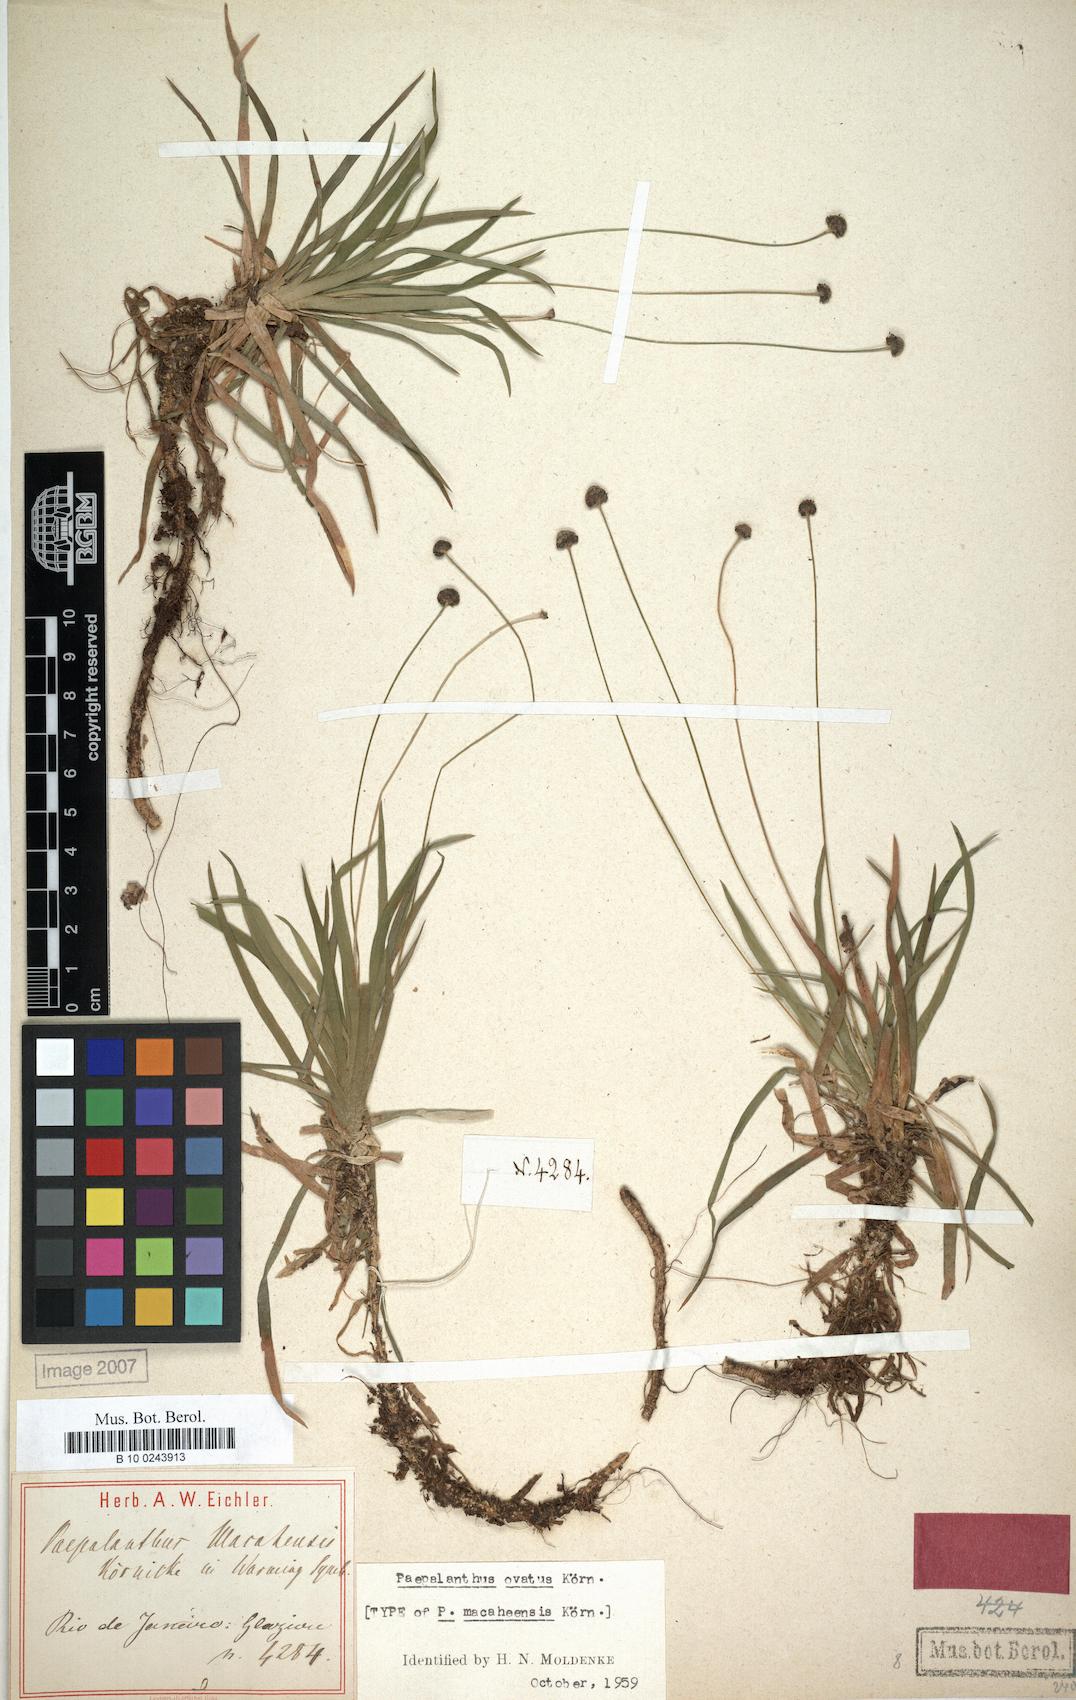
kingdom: Plantae
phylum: Tracheophyta
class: Liliopsida
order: Poales
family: Eriocaulaceae
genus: Paepalanthus
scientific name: Paepalanthus ovatus
